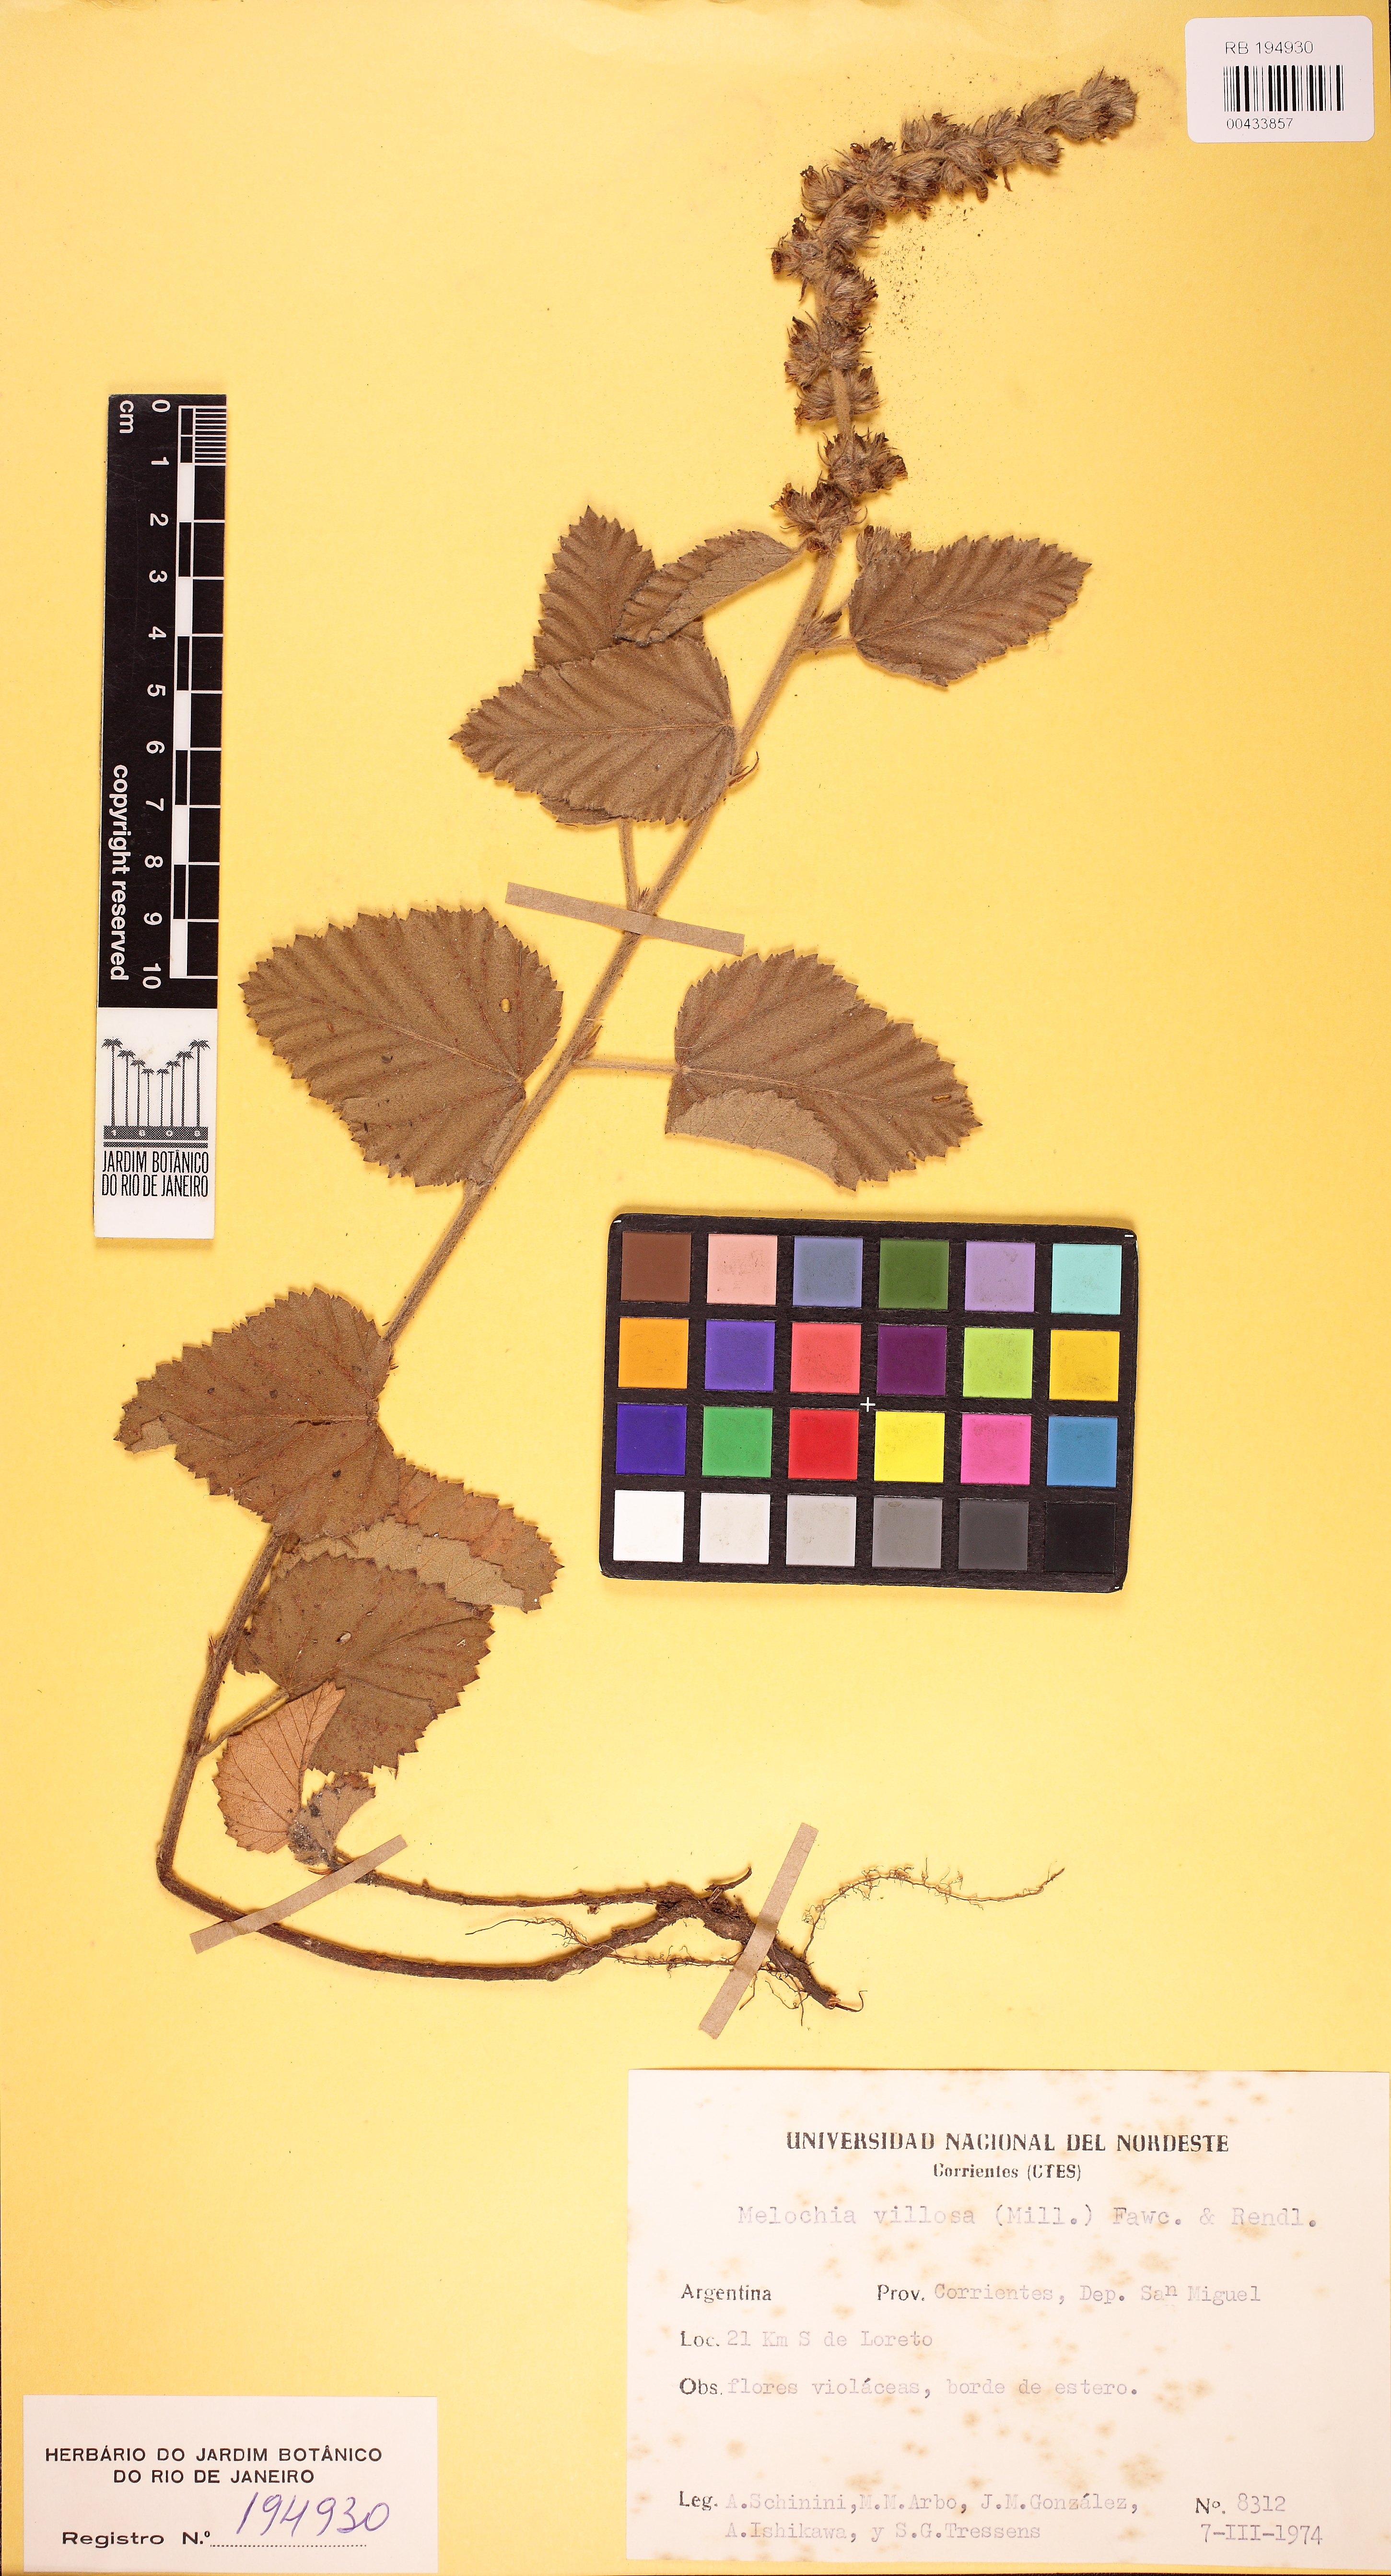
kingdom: Plantae
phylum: Tracheophyta
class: Magnoliopsida
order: Malvales
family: Malvaceae
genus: Melochia
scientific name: Melochia spicata
